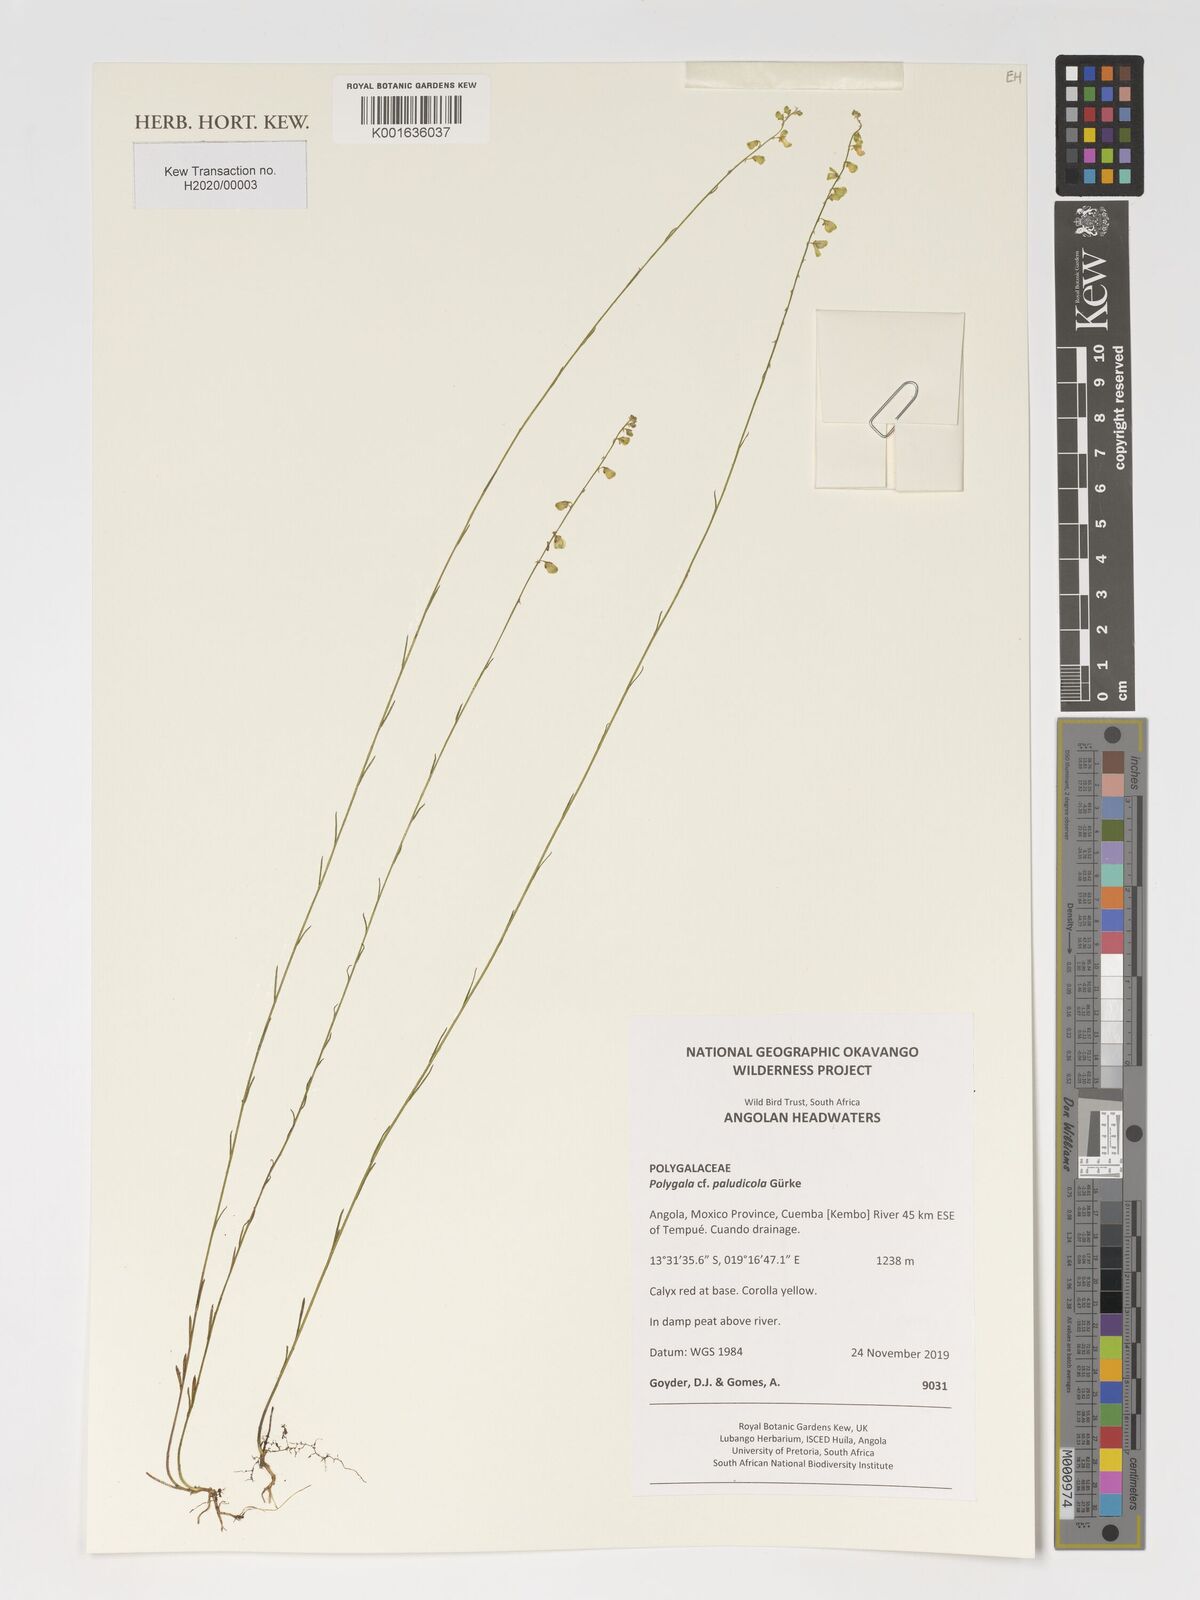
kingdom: Plantae
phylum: Tracheophyta
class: Magnoliopsida
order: Fabales
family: Polygalaceae
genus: Polygala
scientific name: Polygala paludicola
